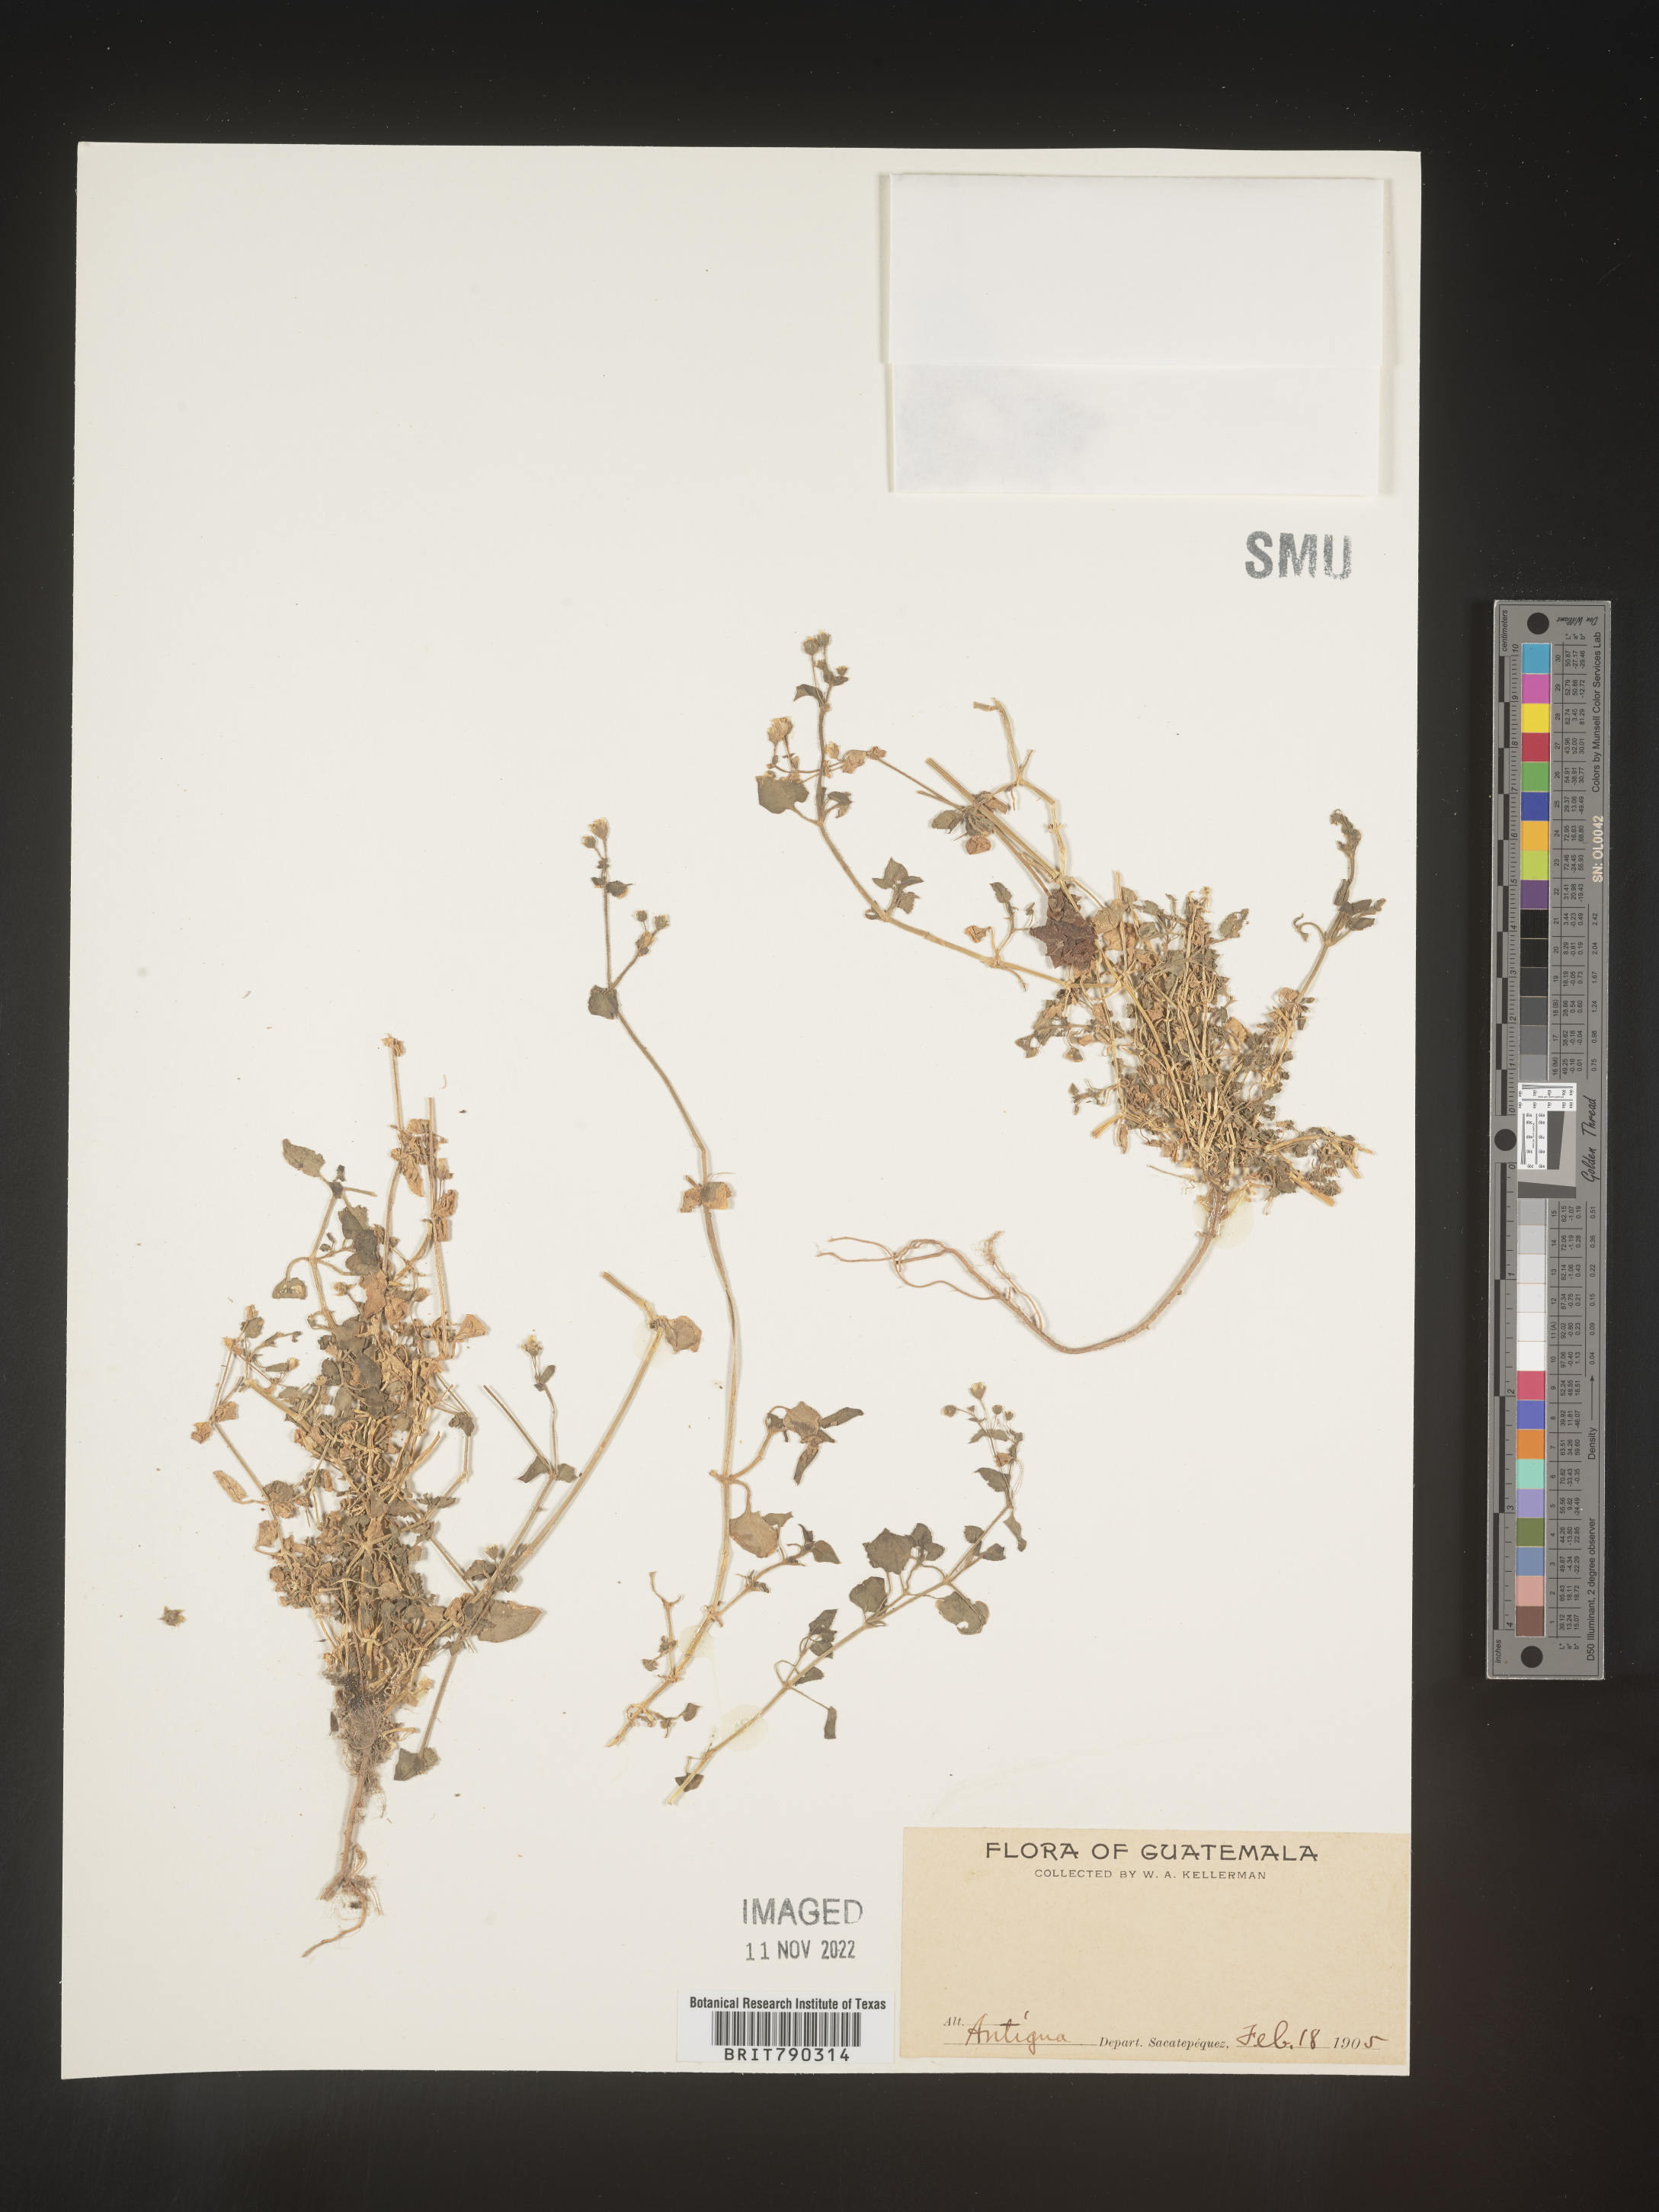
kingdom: Plantae
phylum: Tracheophyta
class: Magnoliopsida
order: Caryophyllales
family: Caryophyllaceae
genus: Drymaria
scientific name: Drymaria
